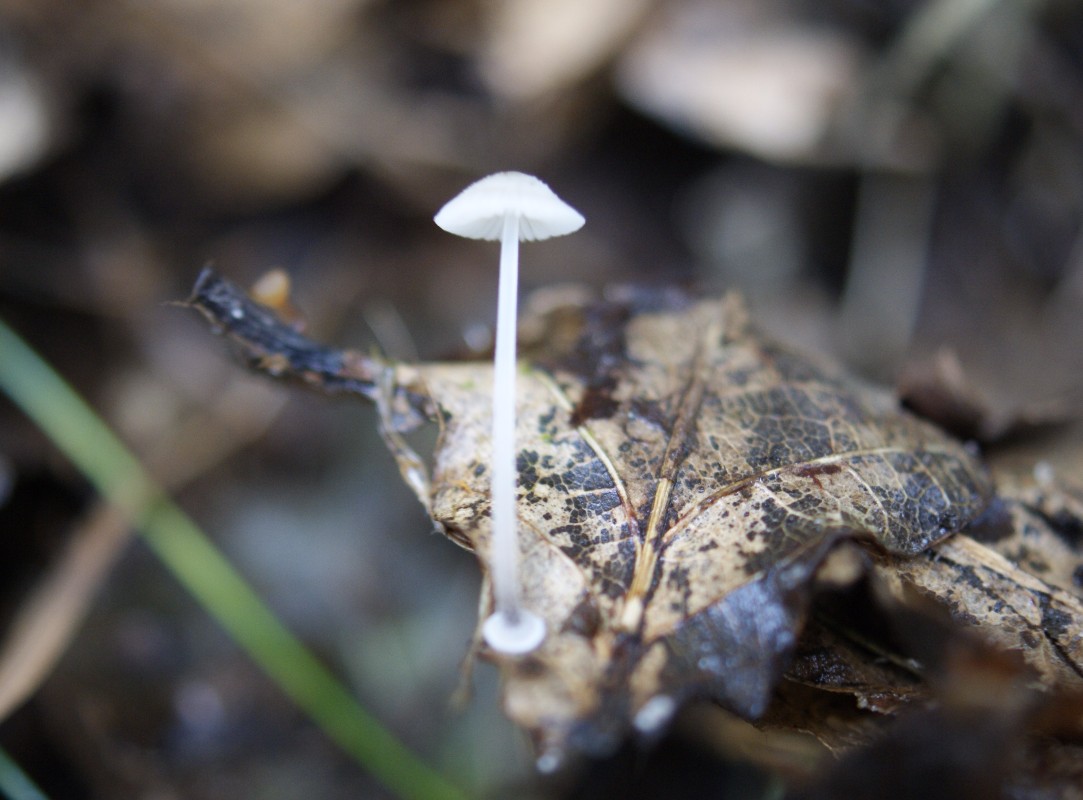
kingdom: Fungi
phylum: Basidiomycota
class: Agaricomycetes
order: Agaricales
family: Mycenaceae
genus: Mycena
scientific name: Mycena stylobates
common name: fureskivet huesvamp
